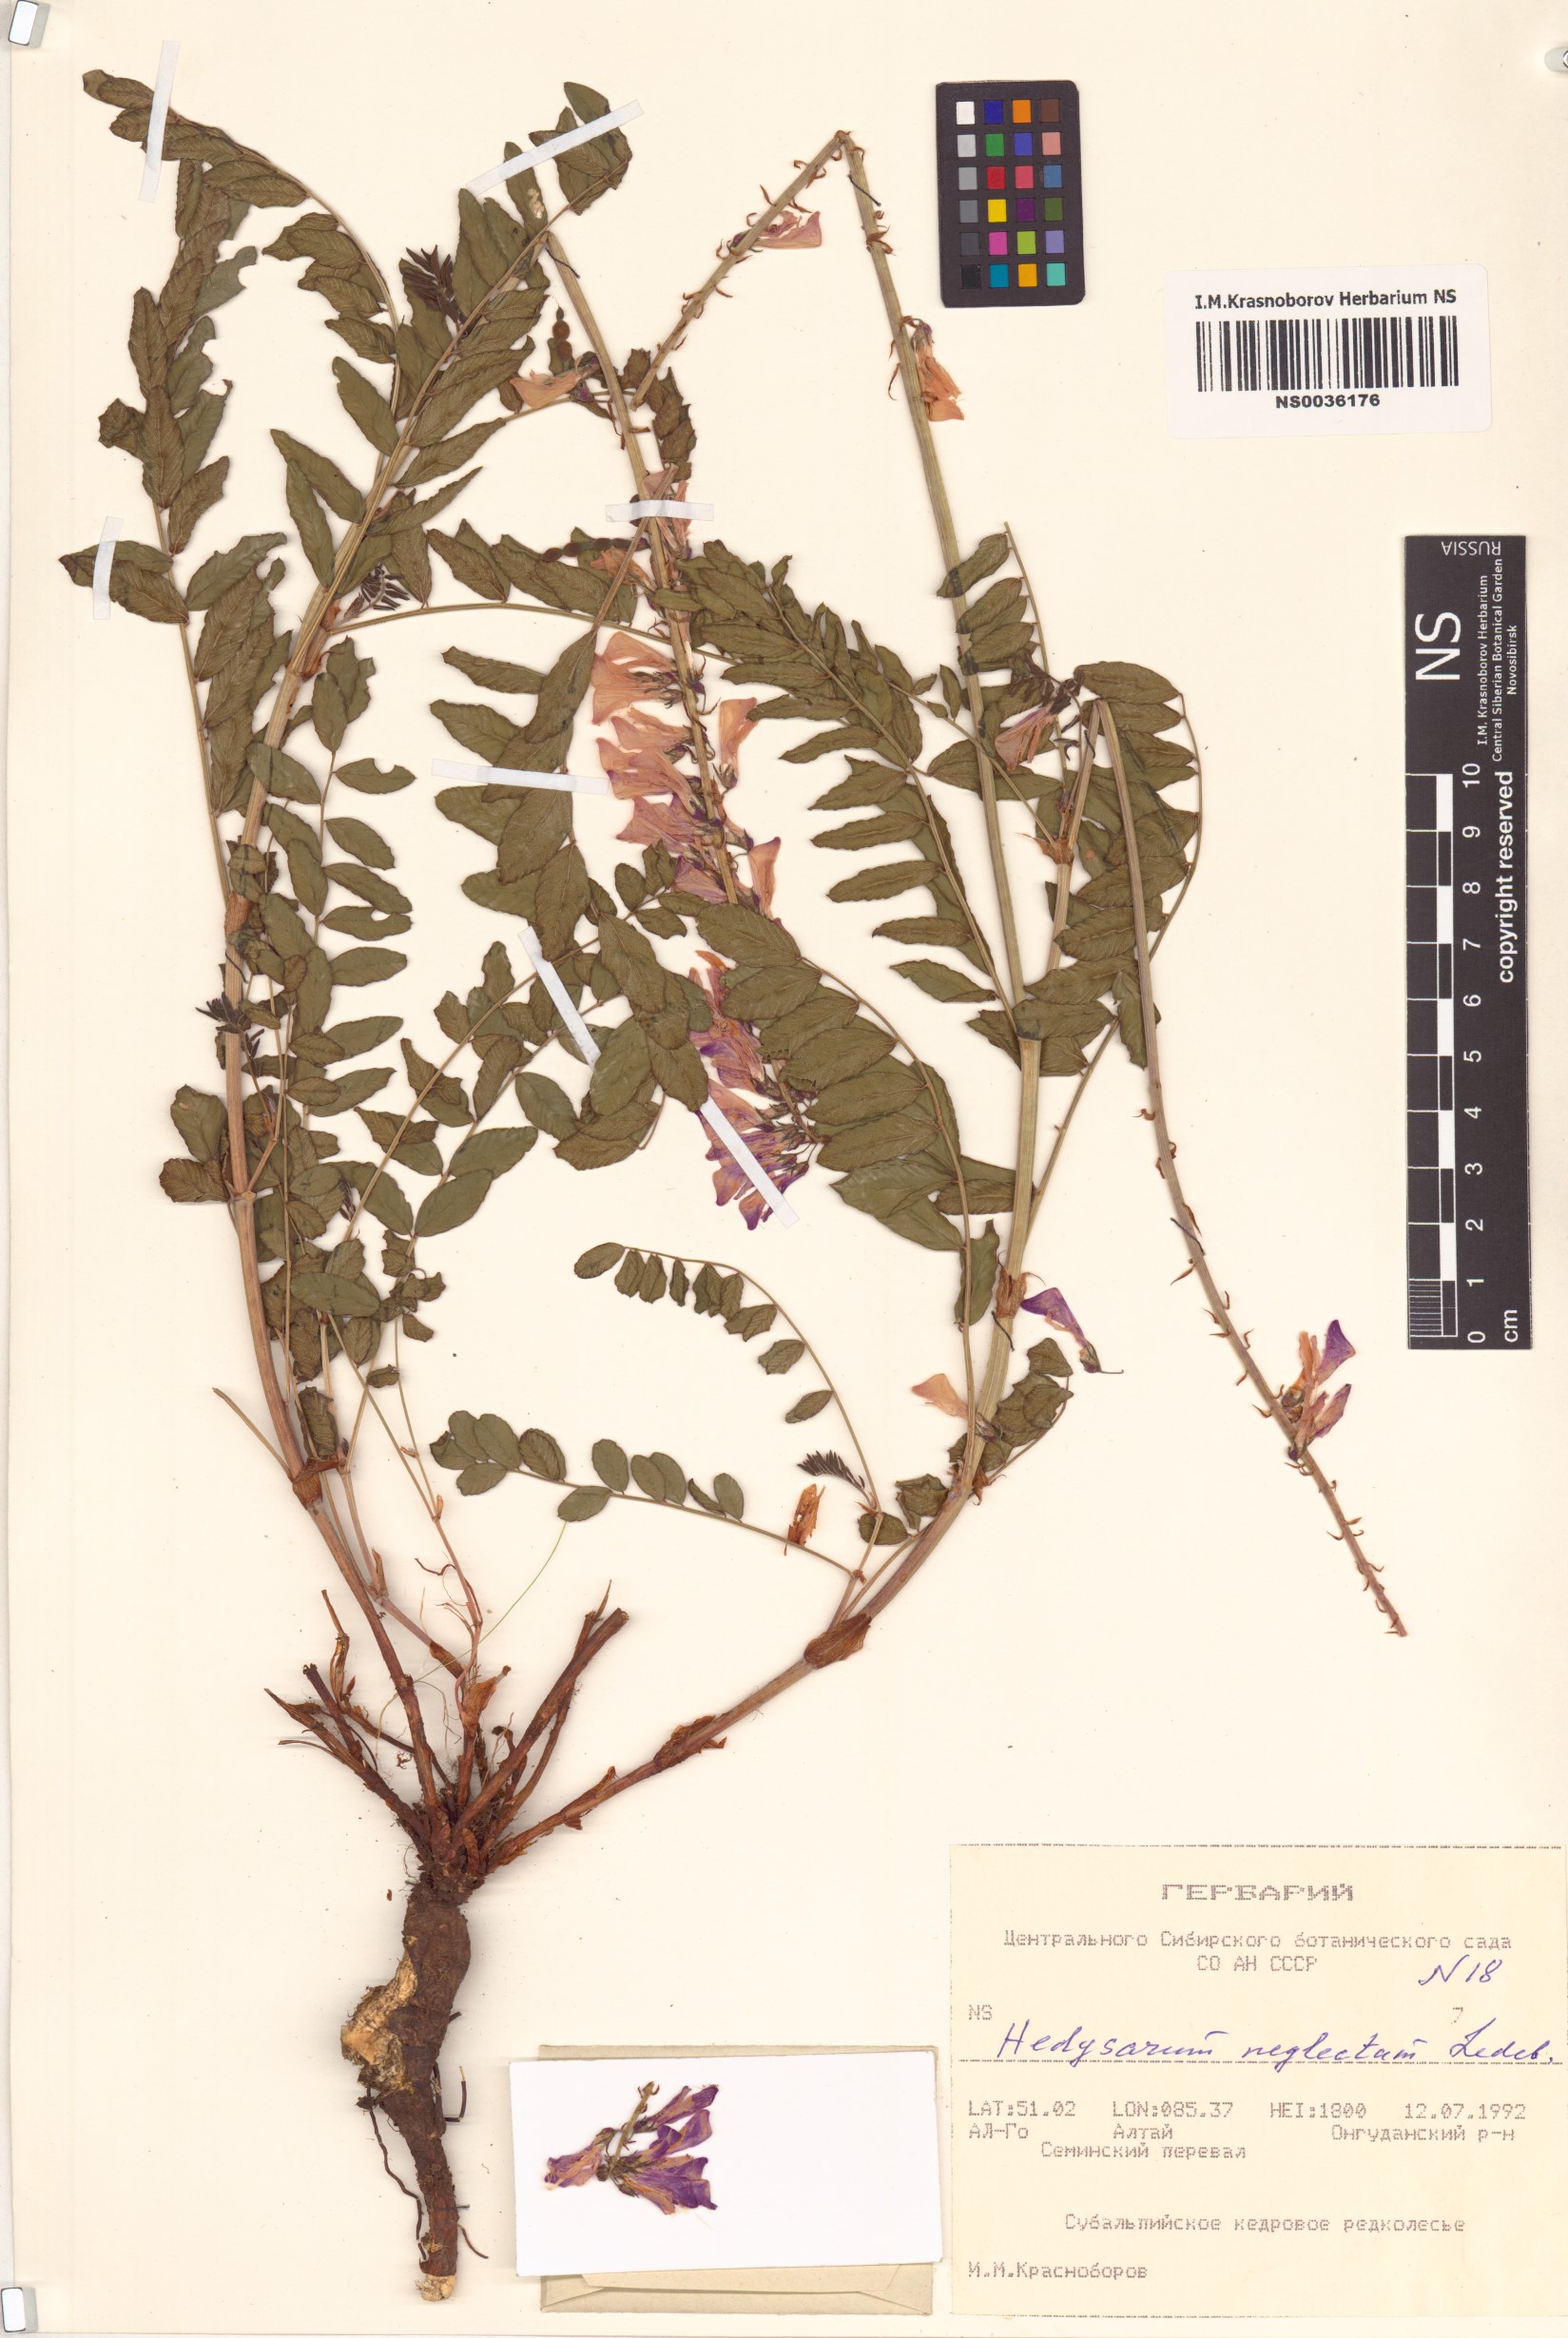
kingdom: Plantae
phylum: Tracheophyta
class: Magnoliopsida
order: Fabales
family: Fabaceae
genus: Hedysarum
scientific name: Hedysarum neglectum
